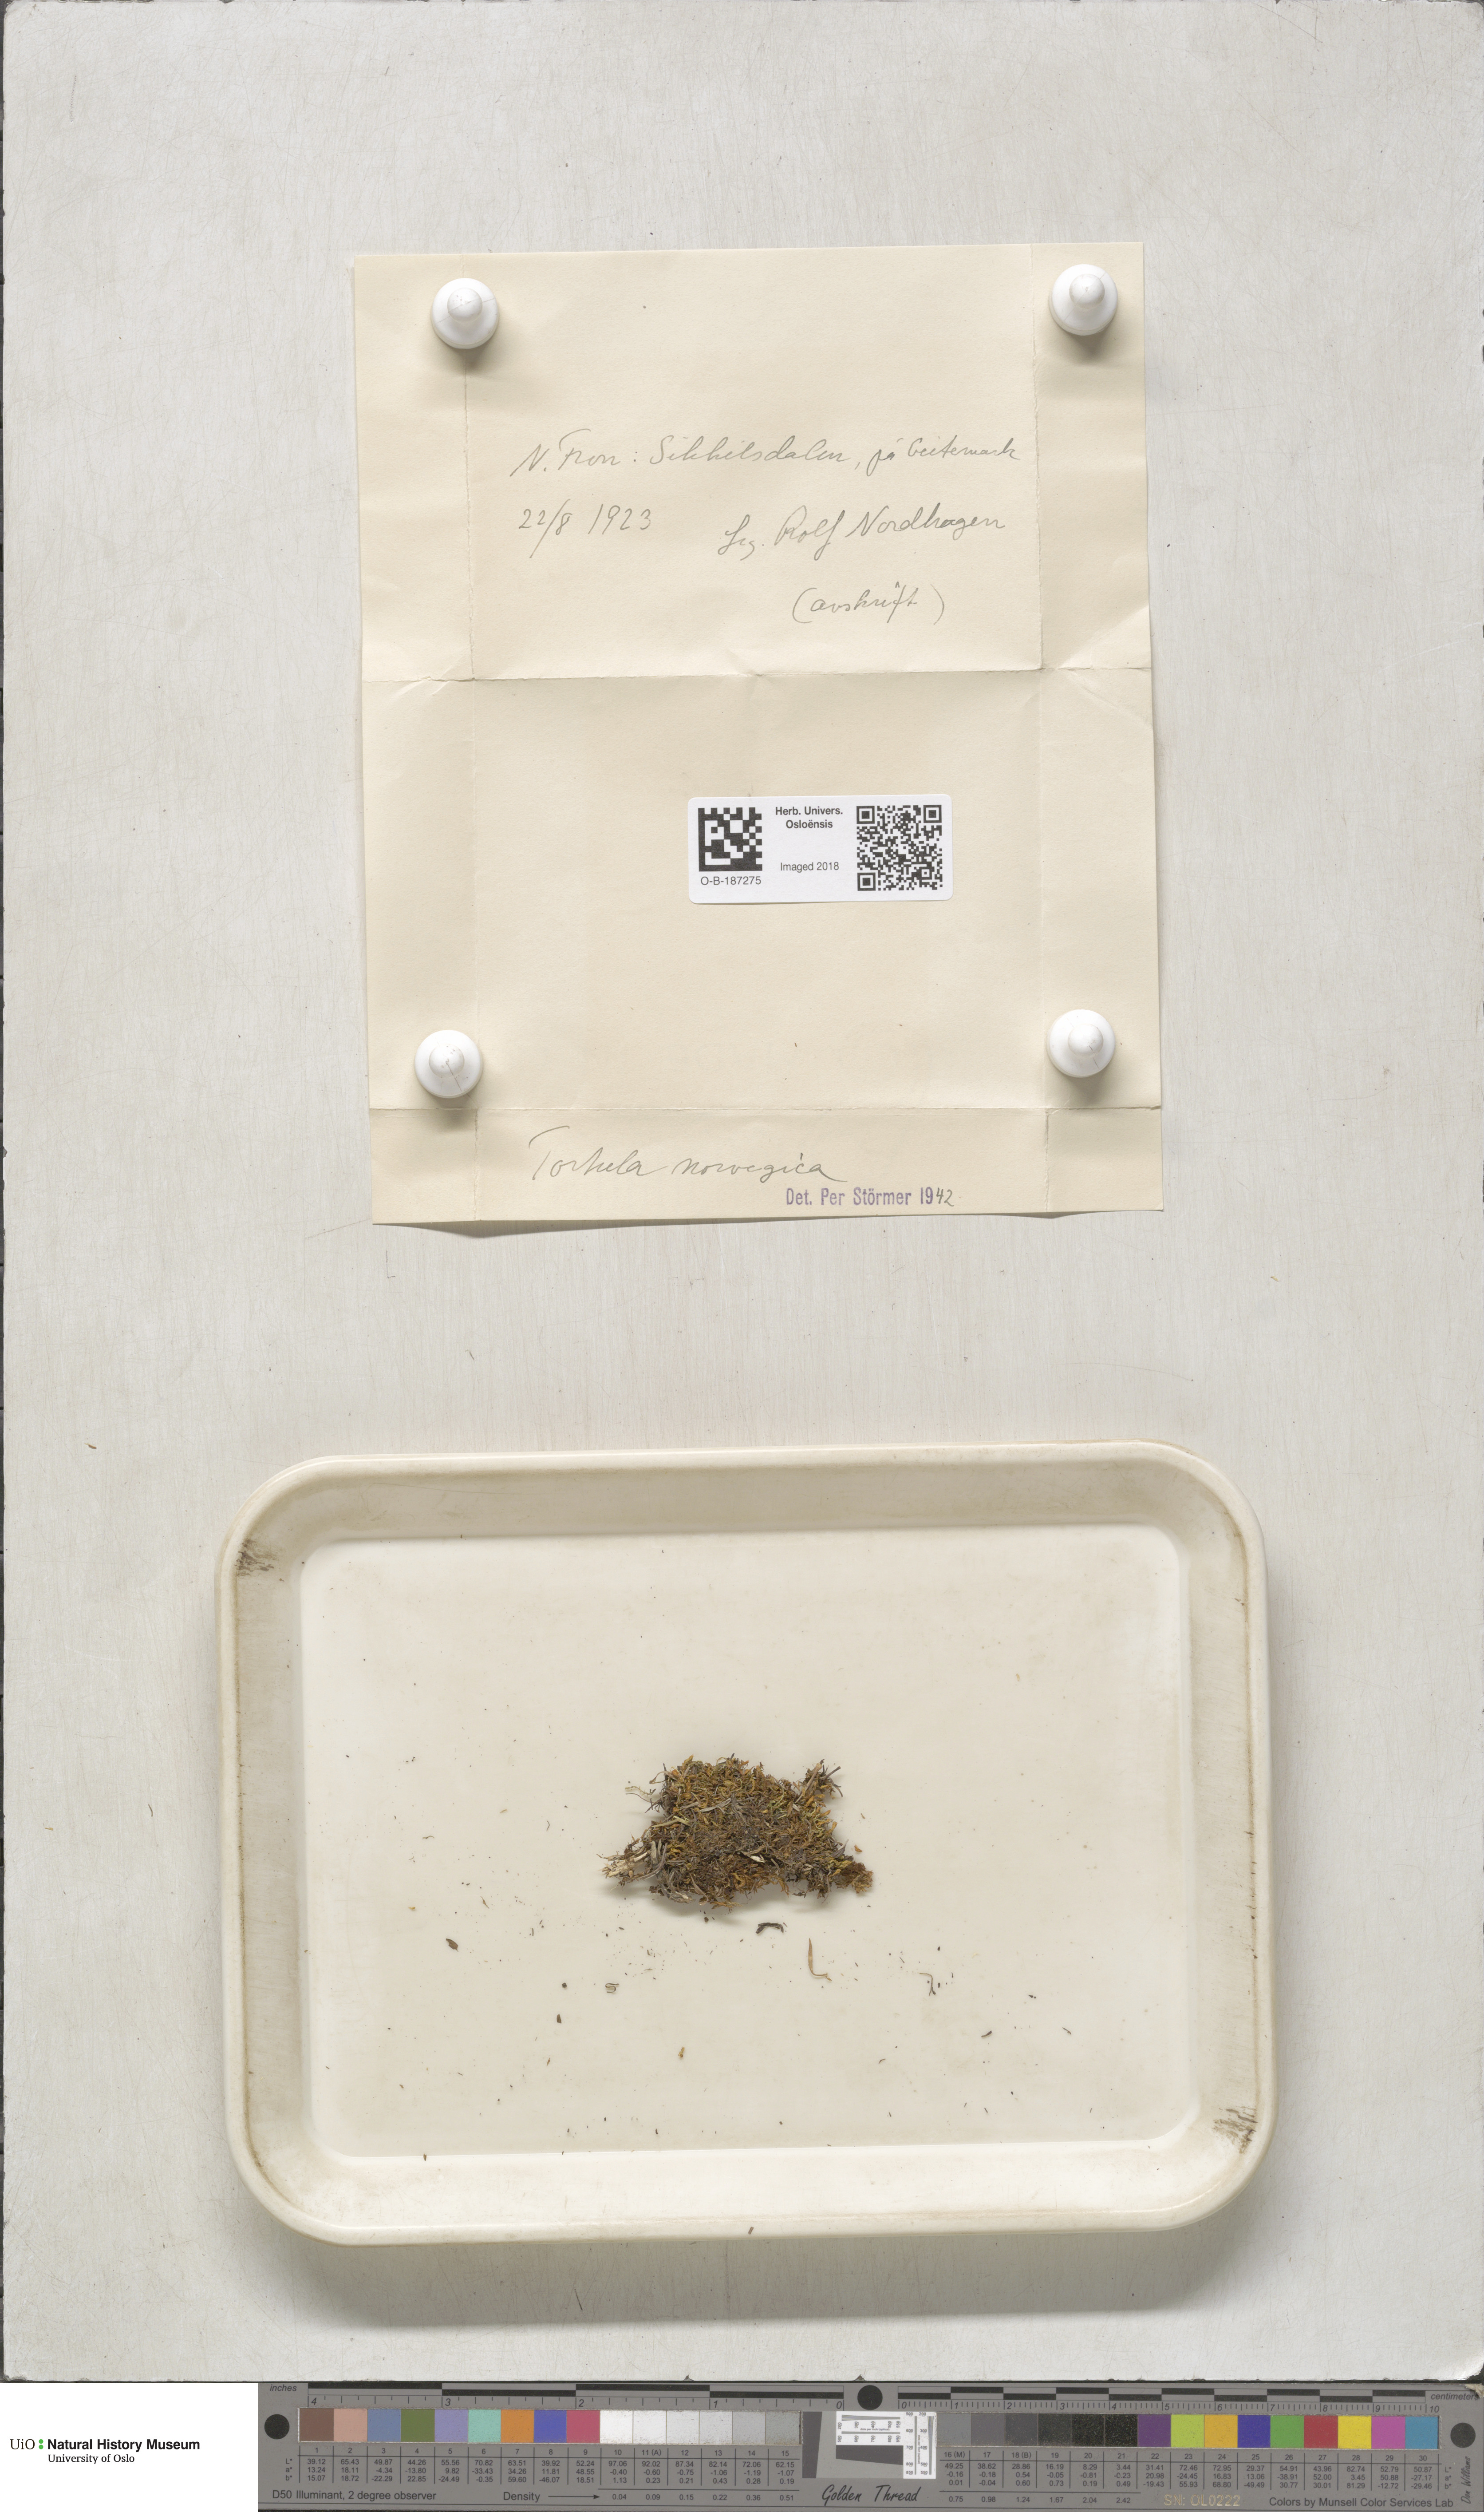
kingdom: Plantae
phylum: Bryophyta
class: Bryopsida
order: Pottiales
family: Pottiaceae
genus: Syntrichia
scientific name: Syntrichia norvegica
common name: Norway screw moss
